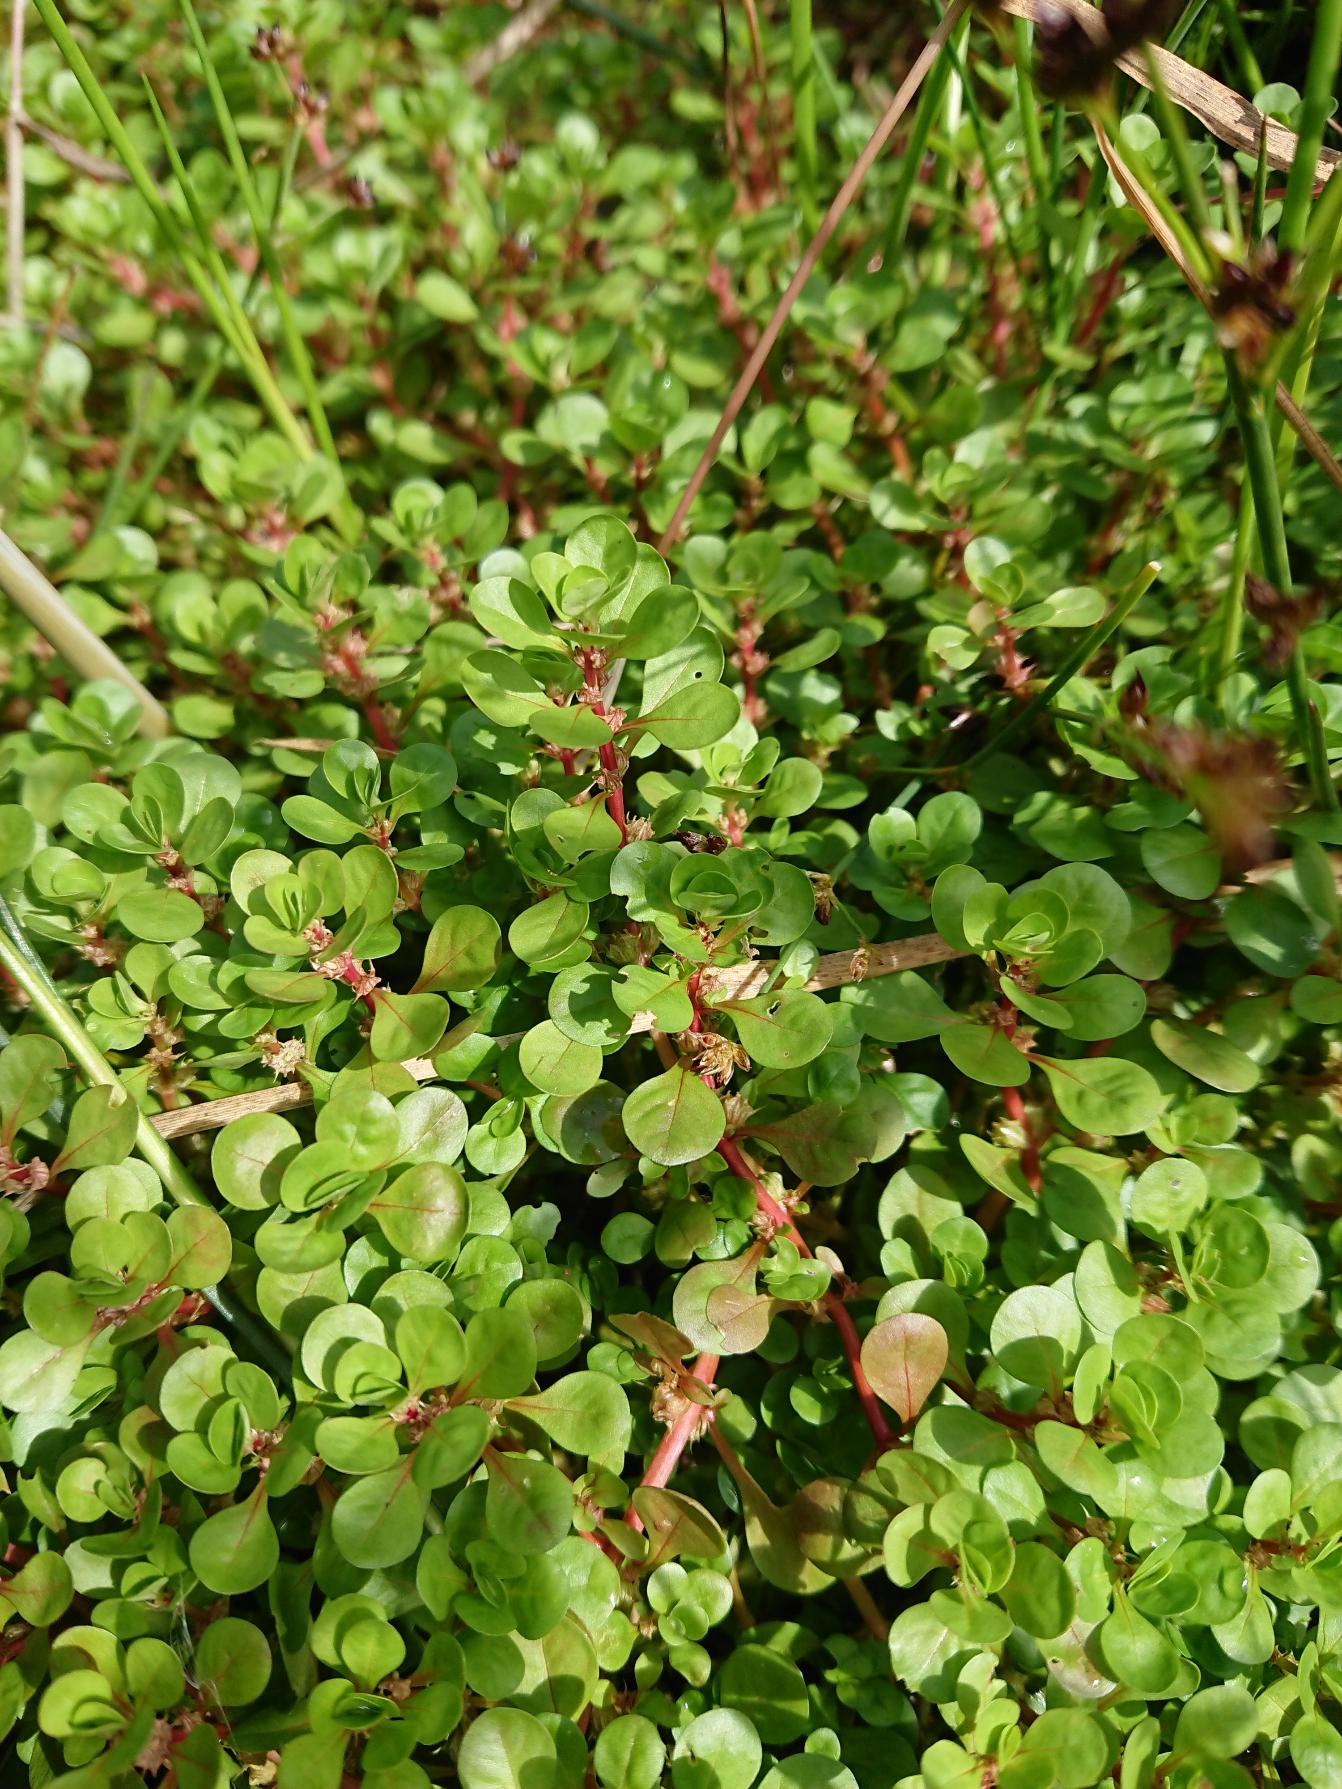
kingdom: Plantae
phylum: Tracheophyta
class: Magnoliopsida
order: Myrtales
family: Lythraceae
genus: Lythrum
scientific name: Lythrum portula
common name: Vandportulak
